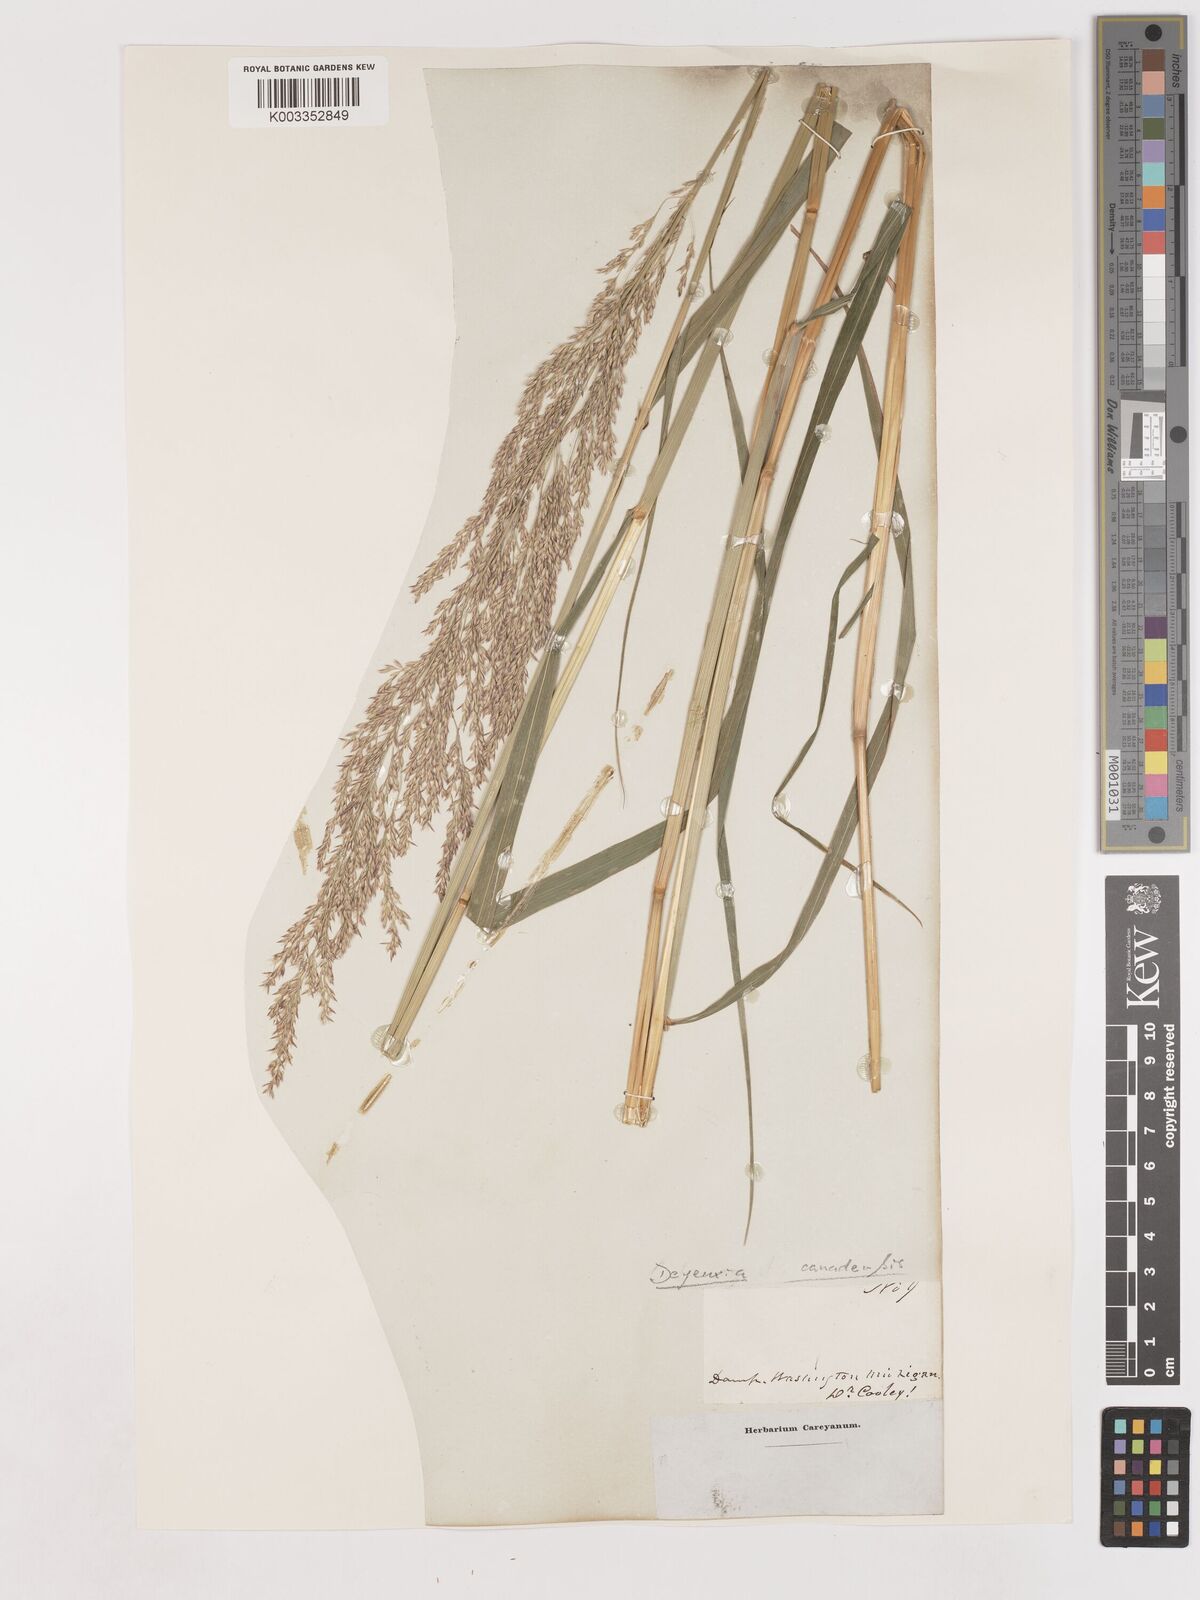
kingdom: Plantae
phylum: Tracheophyta
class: Liliopsida
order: Poales
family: Poaceae
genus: Calamagrostis
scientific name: Calamagrostis canadensis
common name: Canada bluejoint
